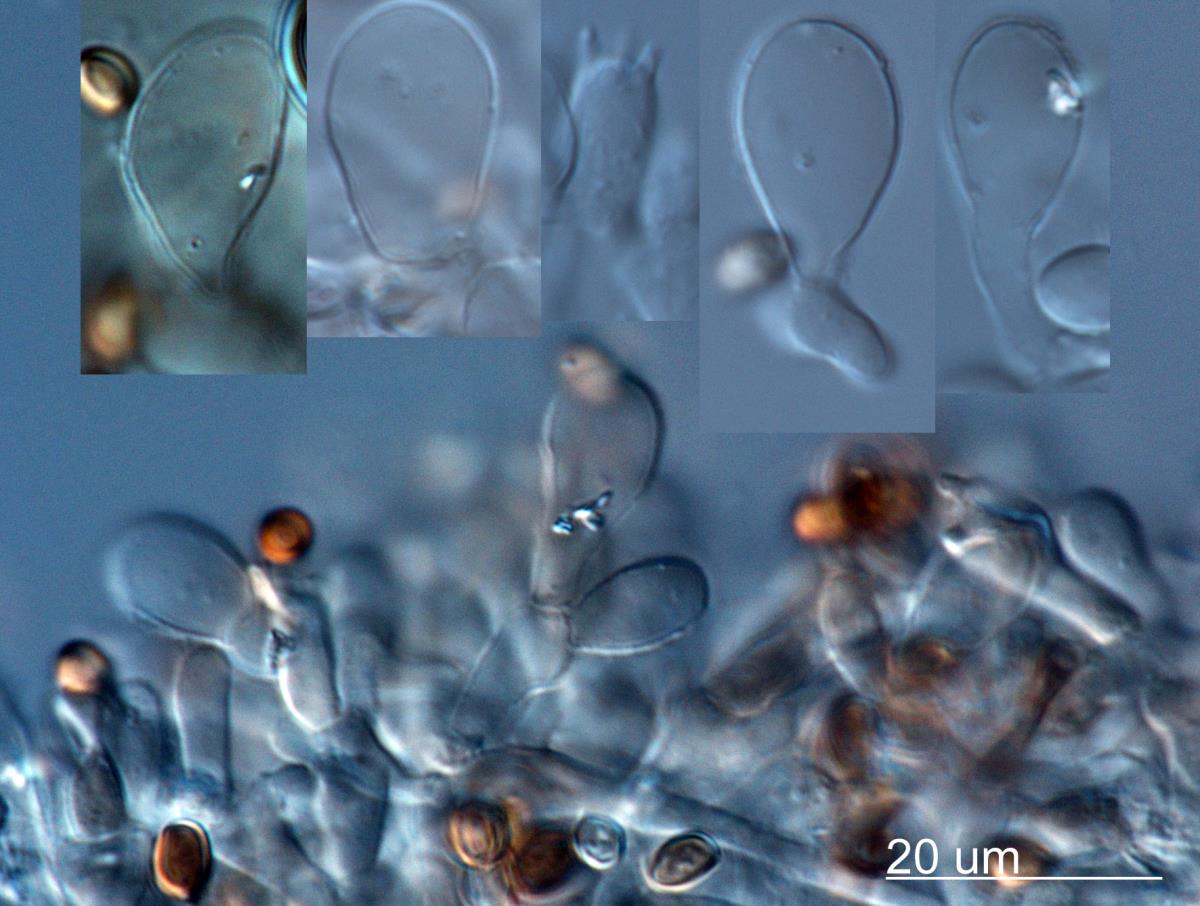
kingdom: Fungi
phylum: Basidiomycota
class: Agaricomycetes
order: Agaricales
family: Agaricaceae
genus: Agaricus
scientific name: Agaricus
